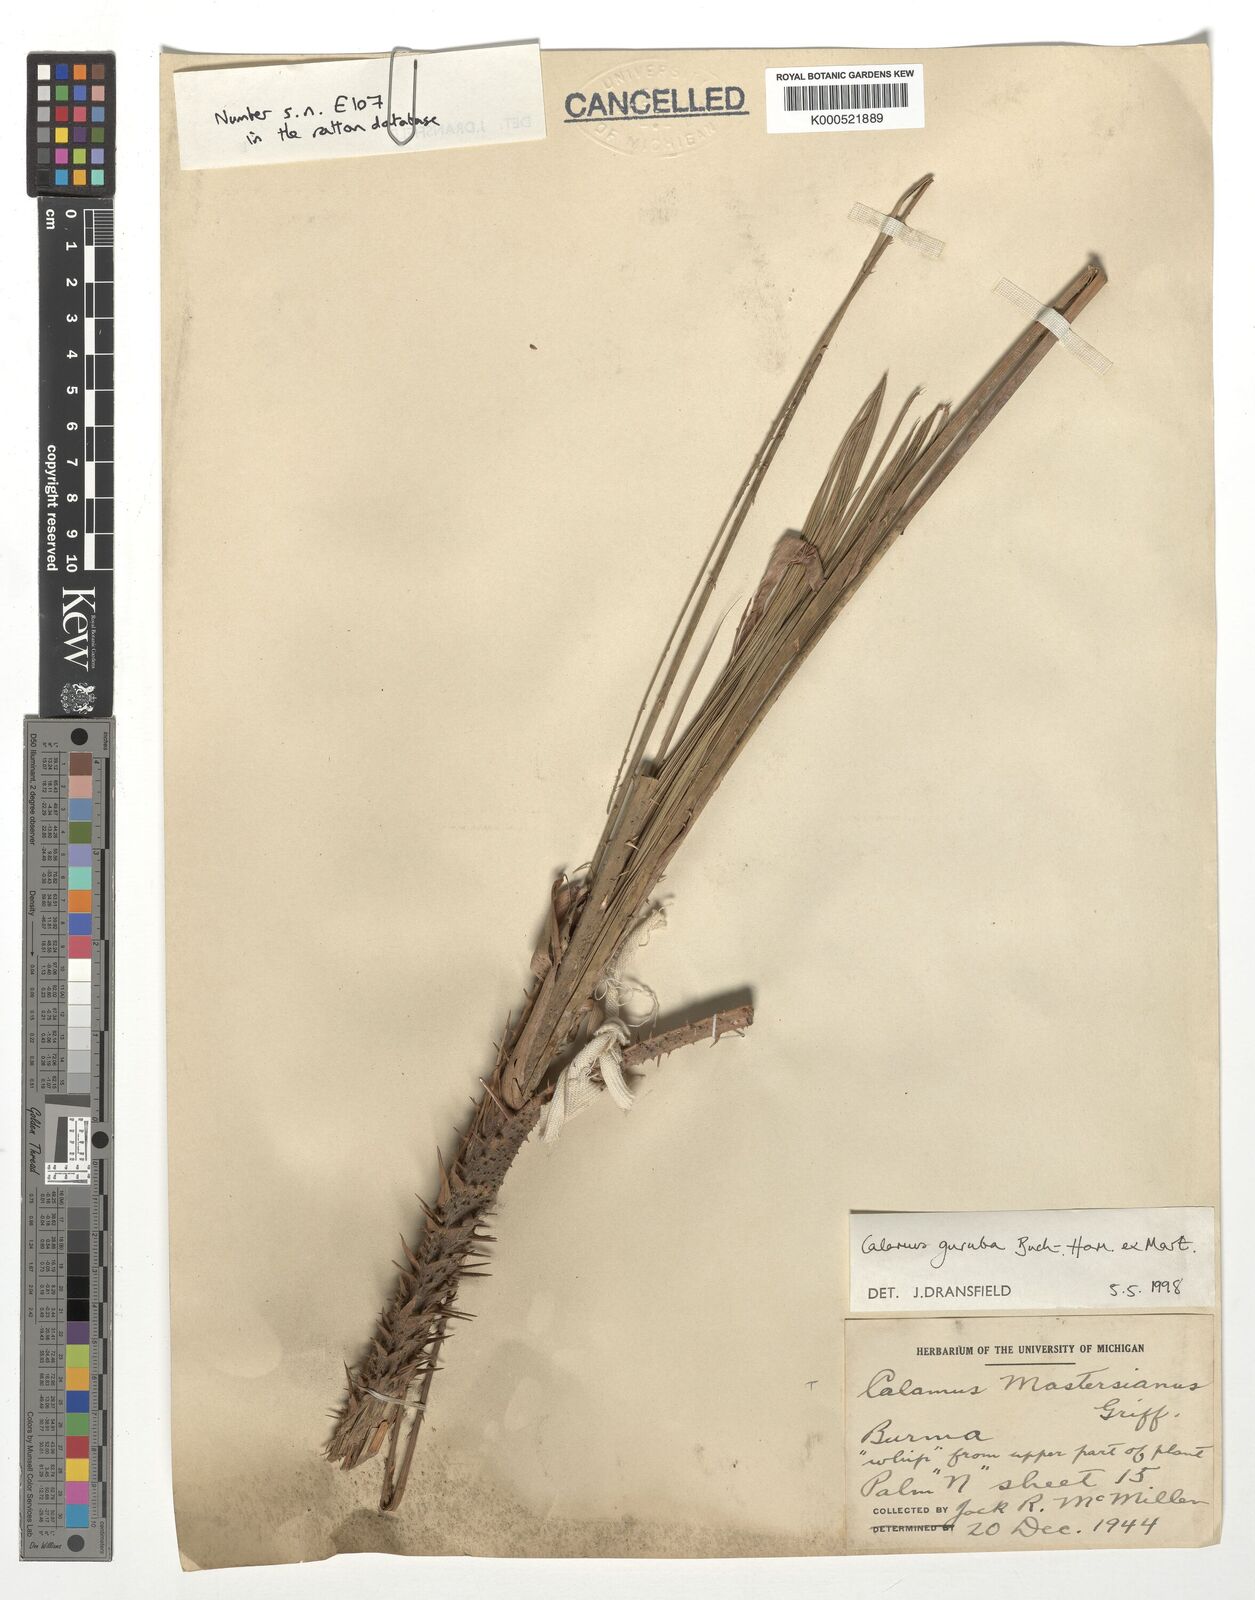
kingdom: Plantae
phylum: Tracheophyta
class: Liliopsida
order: Arecales
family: Arecaceae
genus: Calamus
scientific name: Calamus
